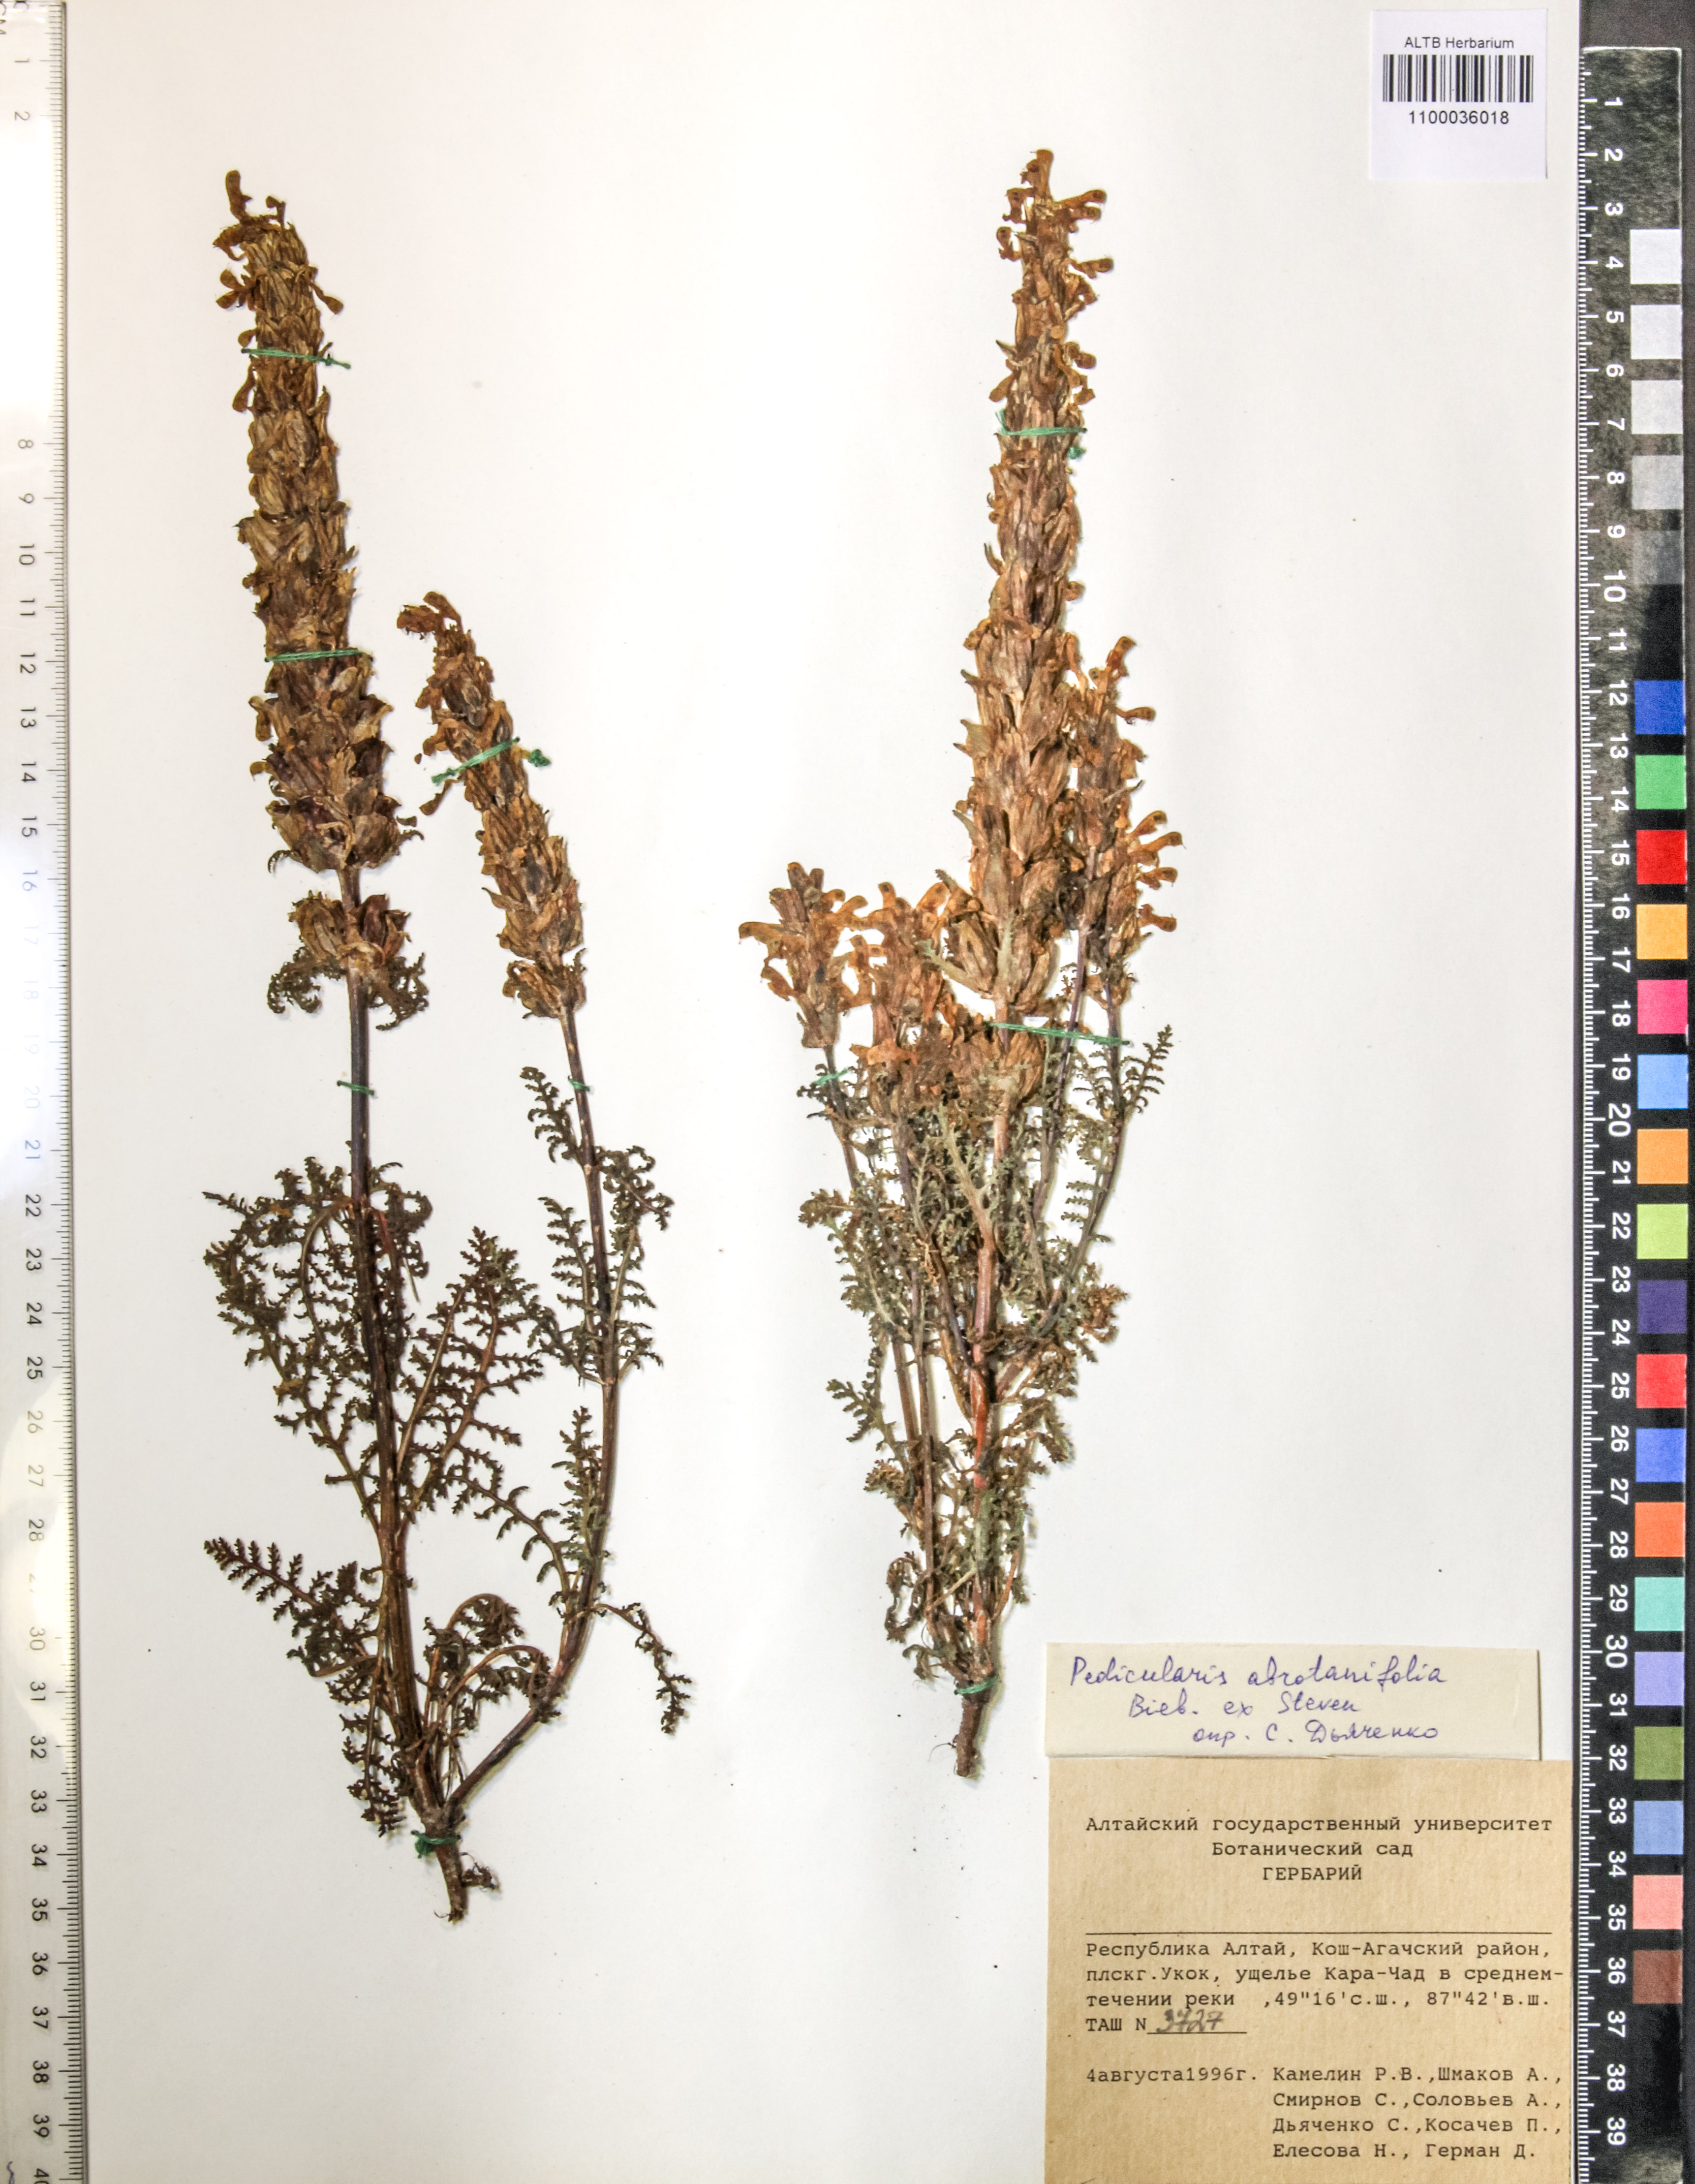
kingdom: Plantae
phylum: Tracheophyta
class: Magnoliopsida
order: Lamiales
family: Orobanchaceae
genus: Pedicularis
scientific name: Pedicularis abrotanifolia
